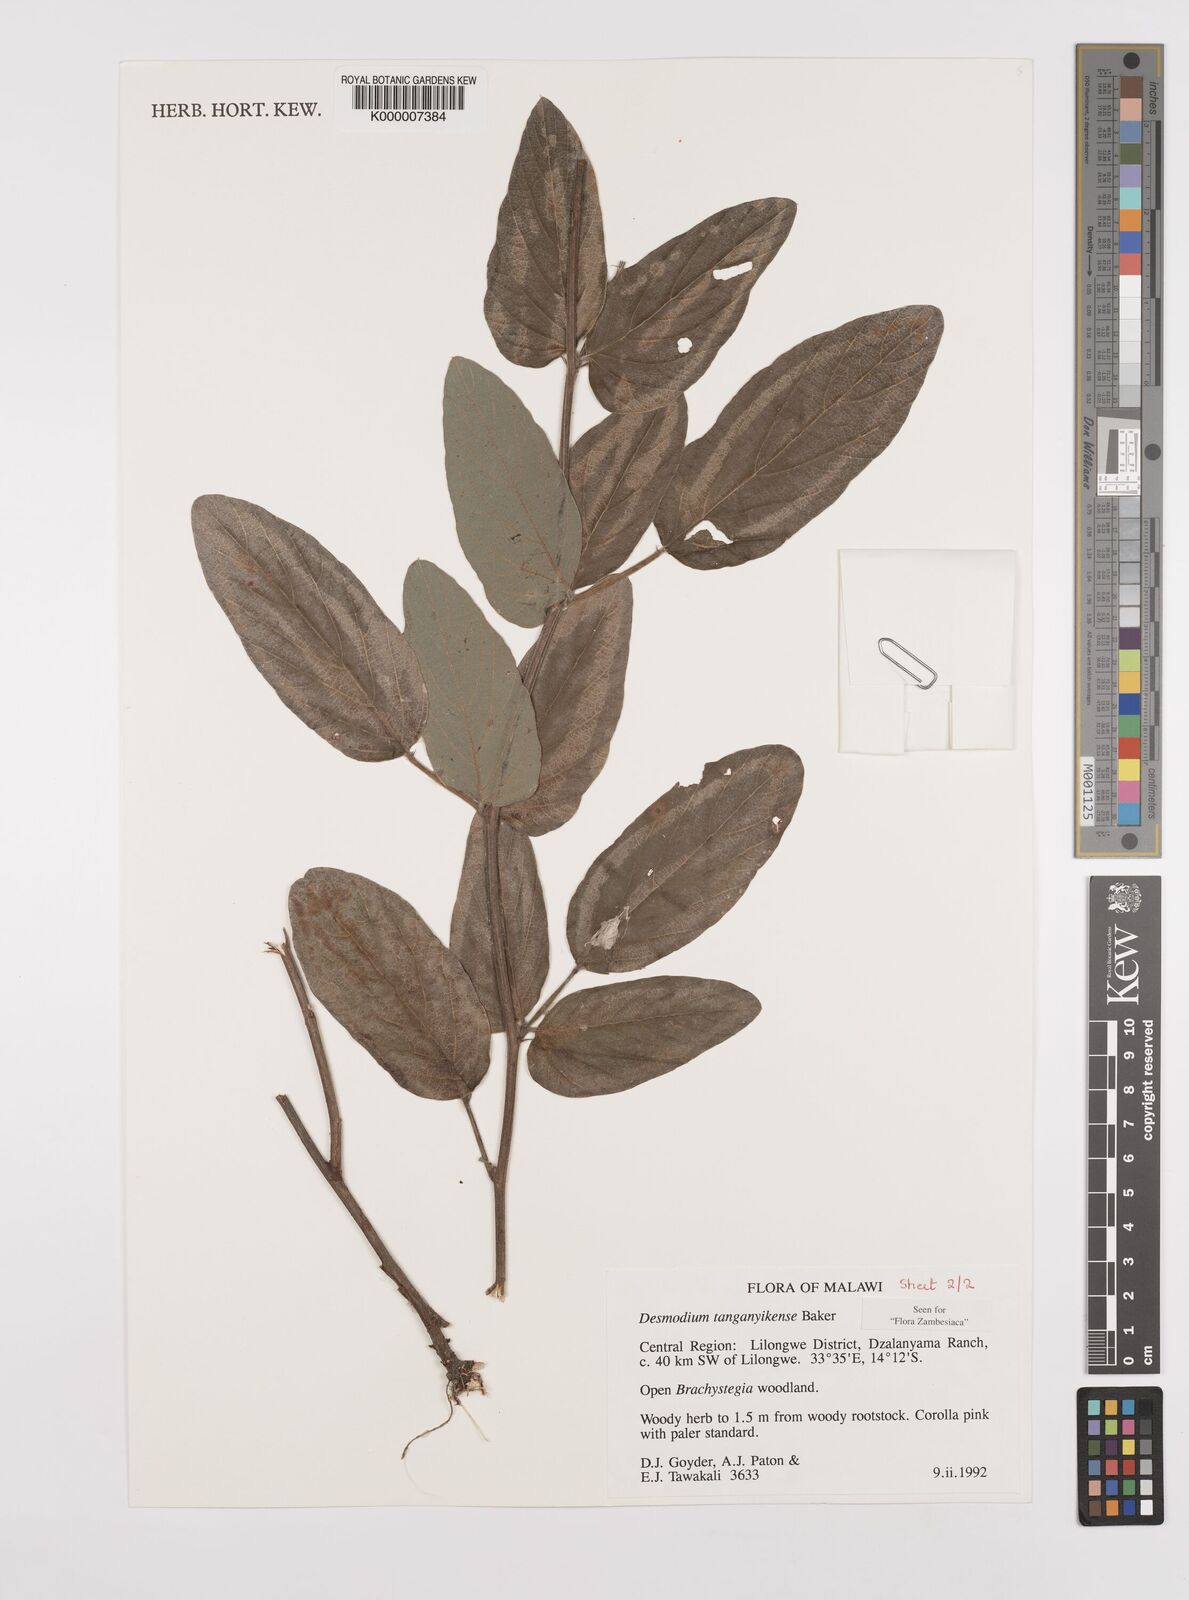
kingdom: Plantae
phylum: Tracheophyta
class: Magnoliopsida
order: Fabales
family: Fabaceae
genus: Pleurolobus
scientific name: Pleurolobus tanganyikensis
